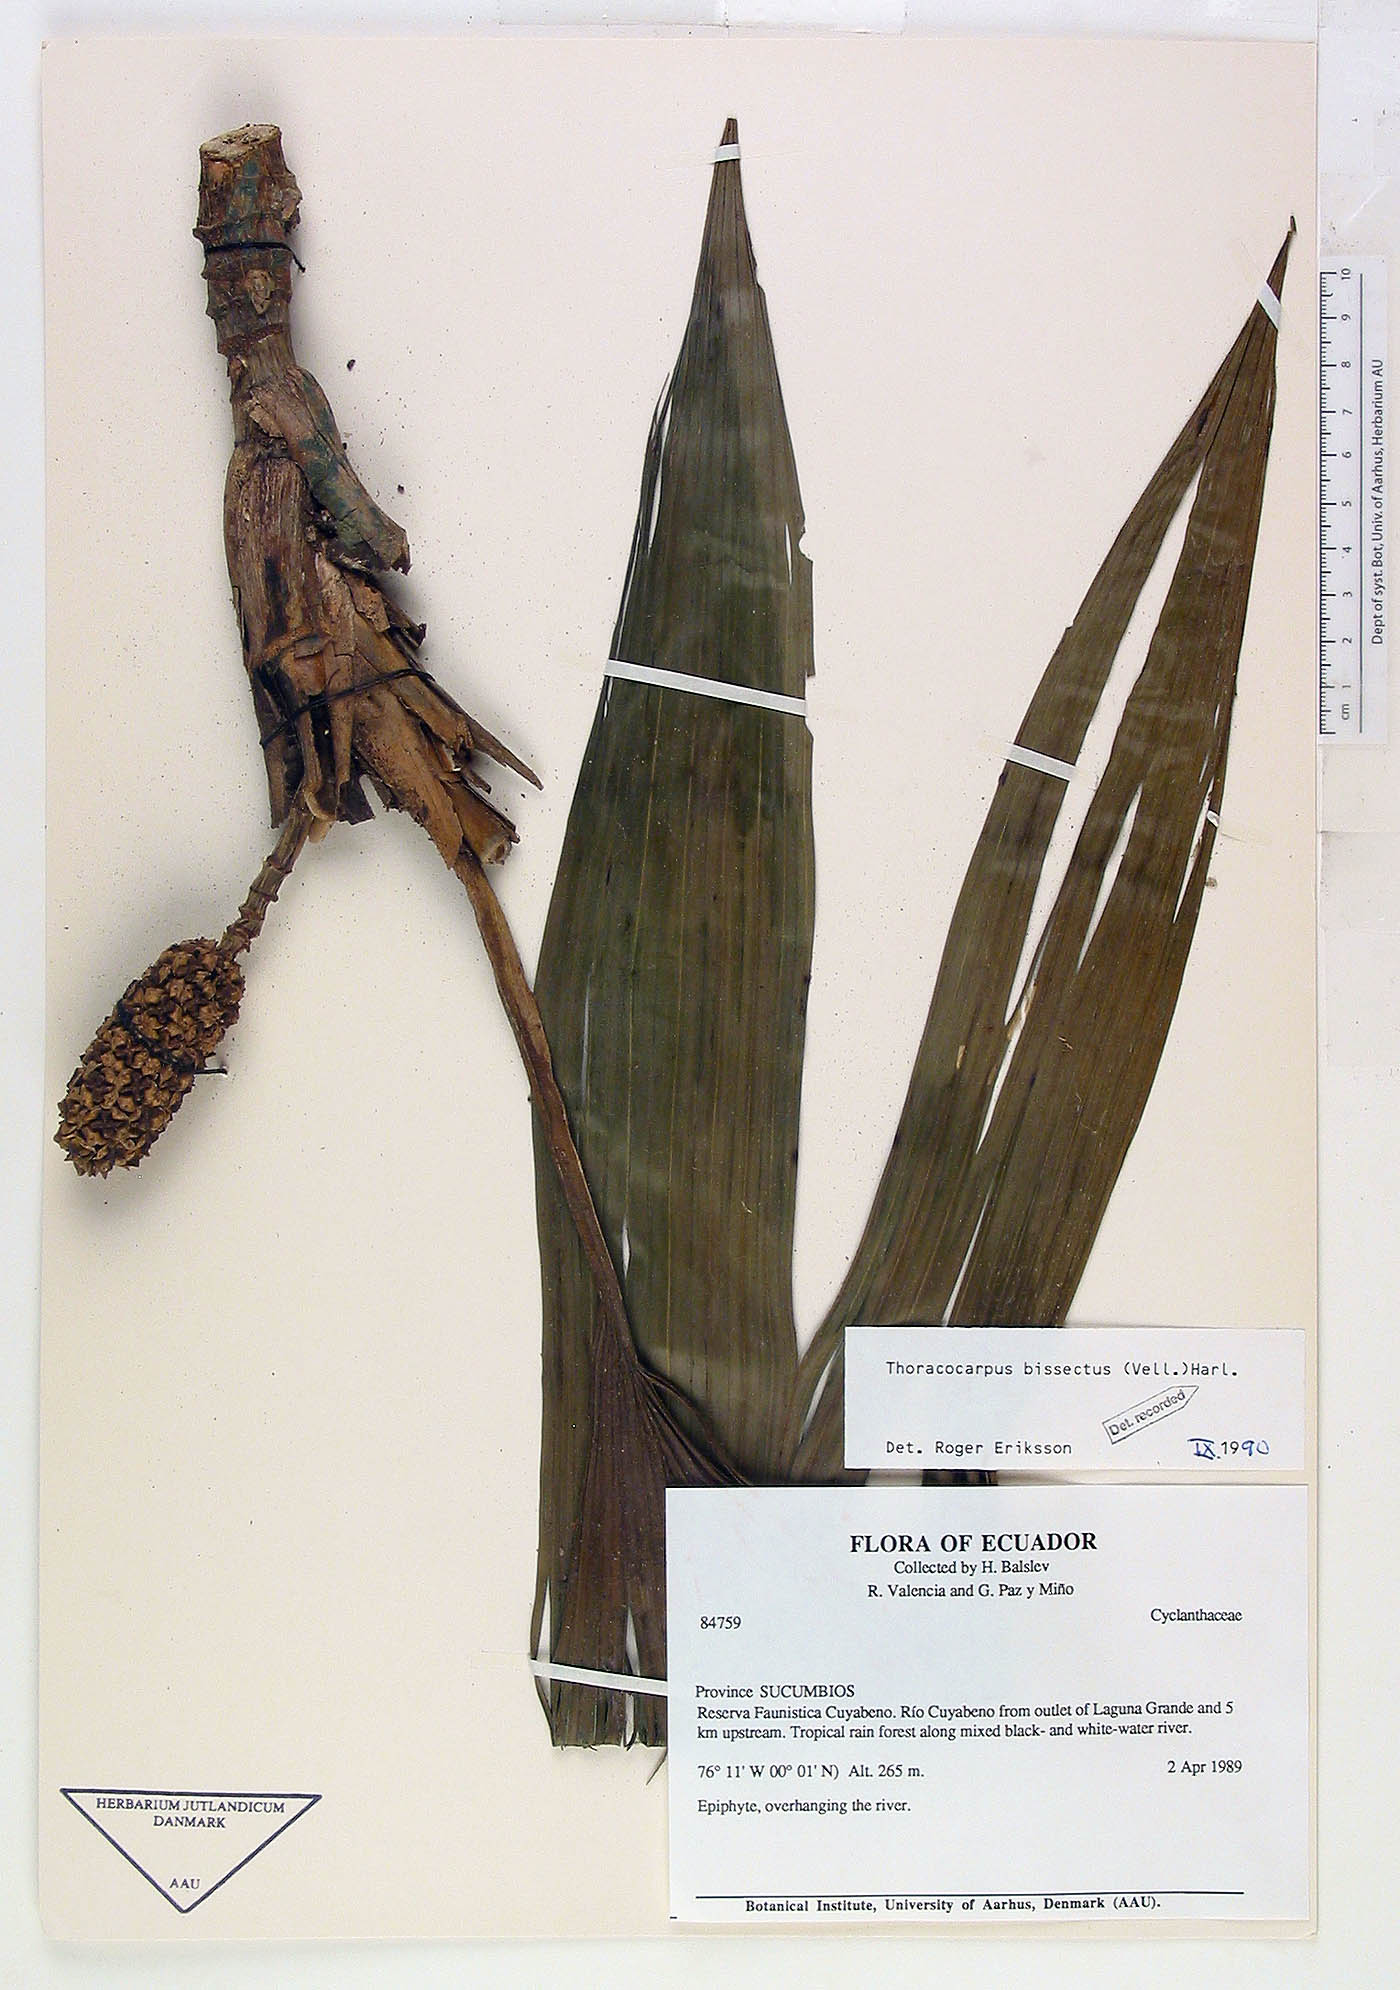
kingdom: Plantae
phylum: Tracheophyta
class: Liliopsida
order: Pandanales
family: Cyclanthaceae
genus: Thoracocarpus
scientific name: Thoracocarpus bissectus
